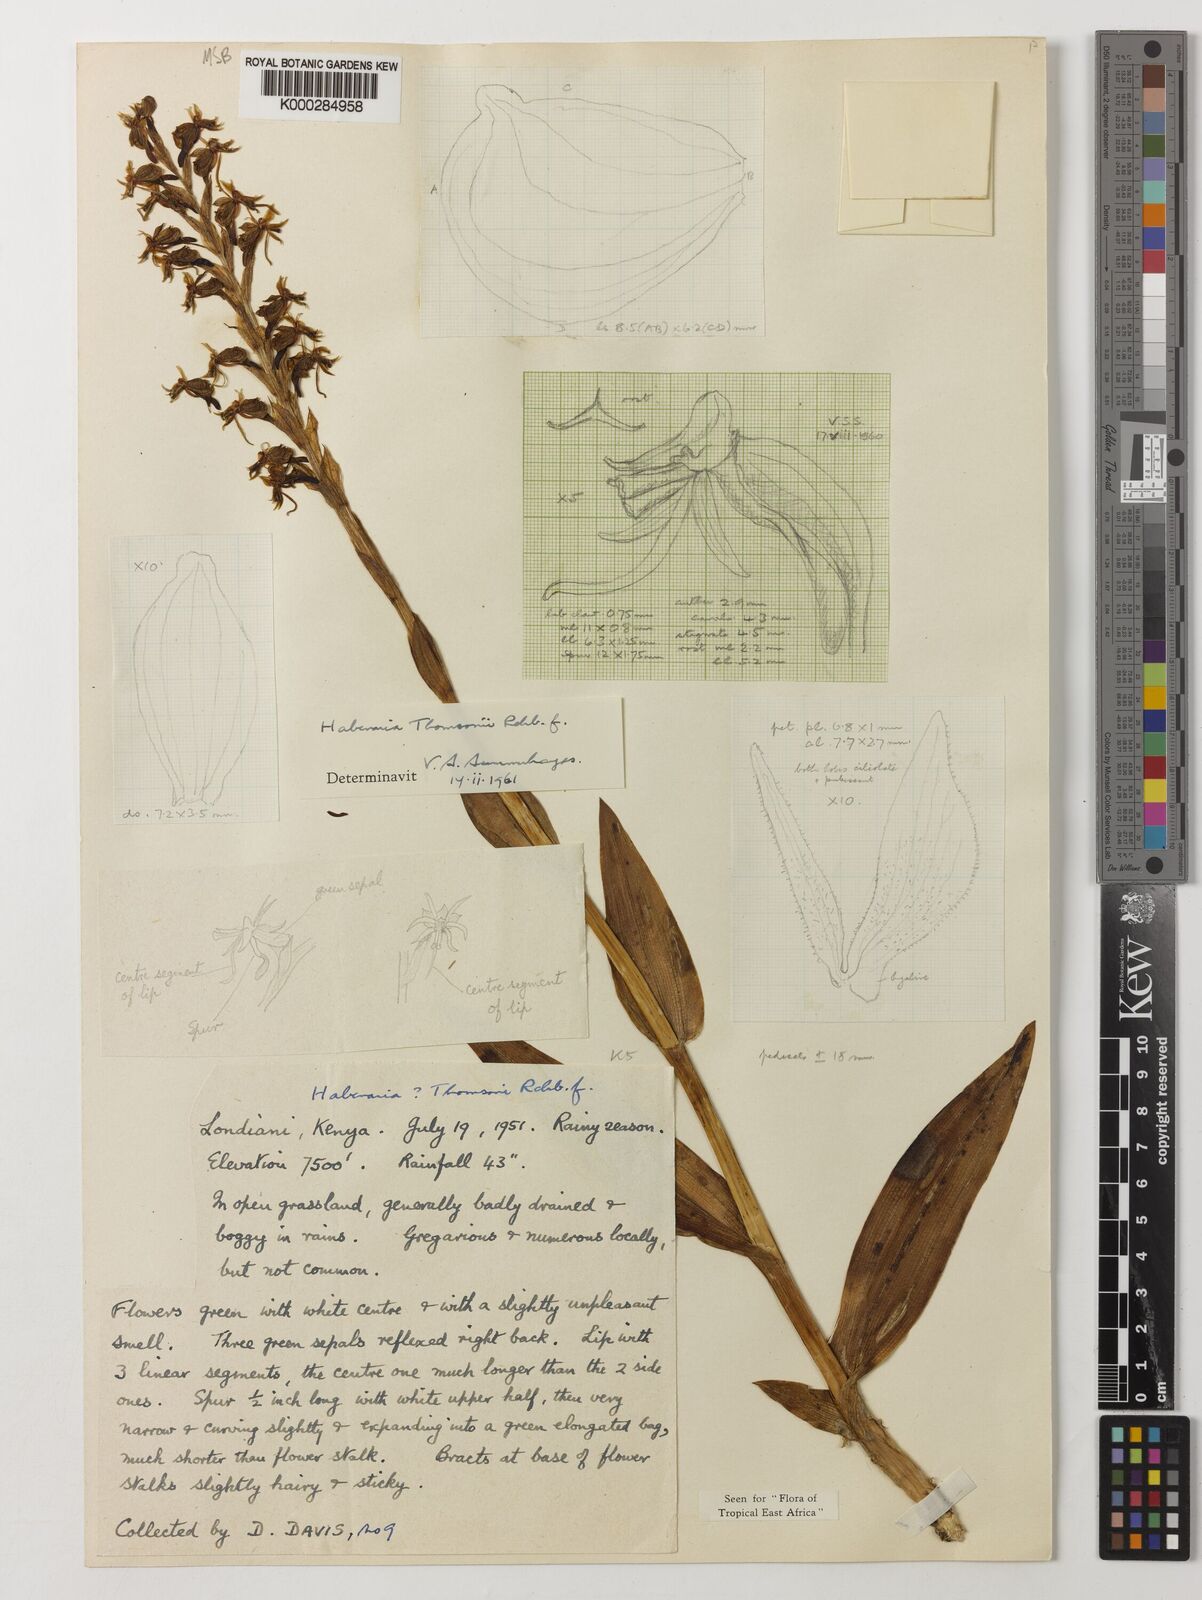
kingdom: Plantae
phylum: Tracheophyta
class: Liliopsida
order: Asparagales
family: Orchidaceae
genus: Habenaria
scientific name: Habenaria thomsonii
